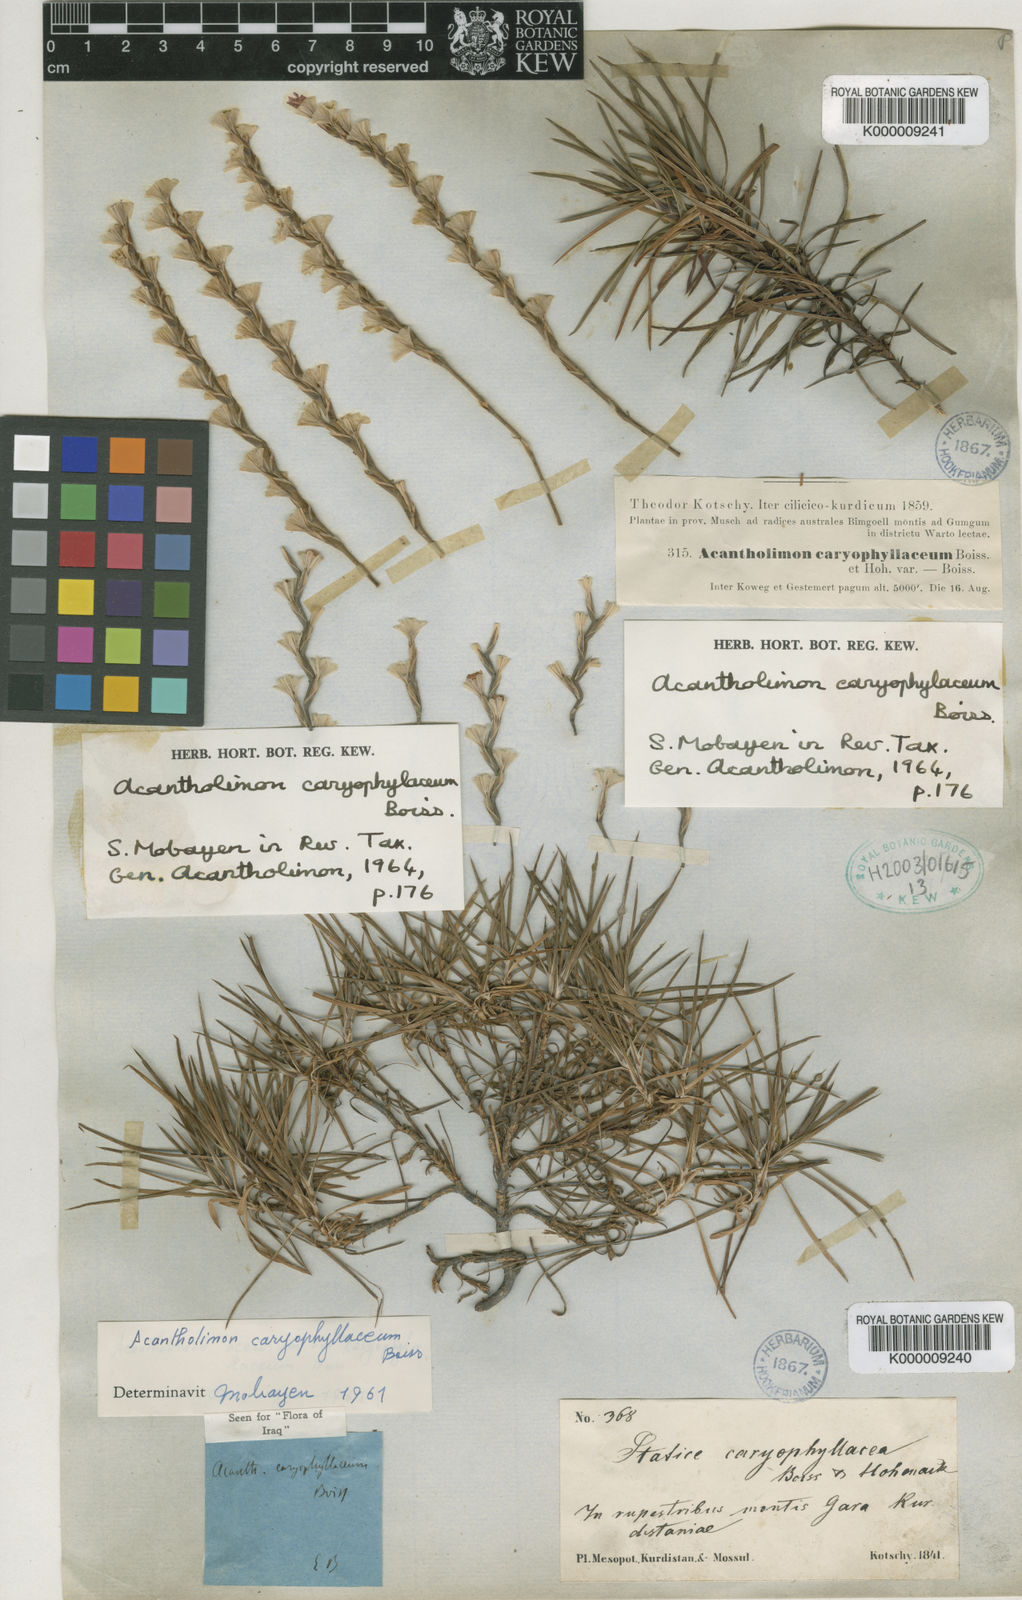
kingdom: Plantae
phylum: Tracheophyta
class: Magnoliopsida
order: Caryophyllales
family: Plumbaginaceae
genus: Acantholimon
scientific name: Acantholimon caryophyllaceum
